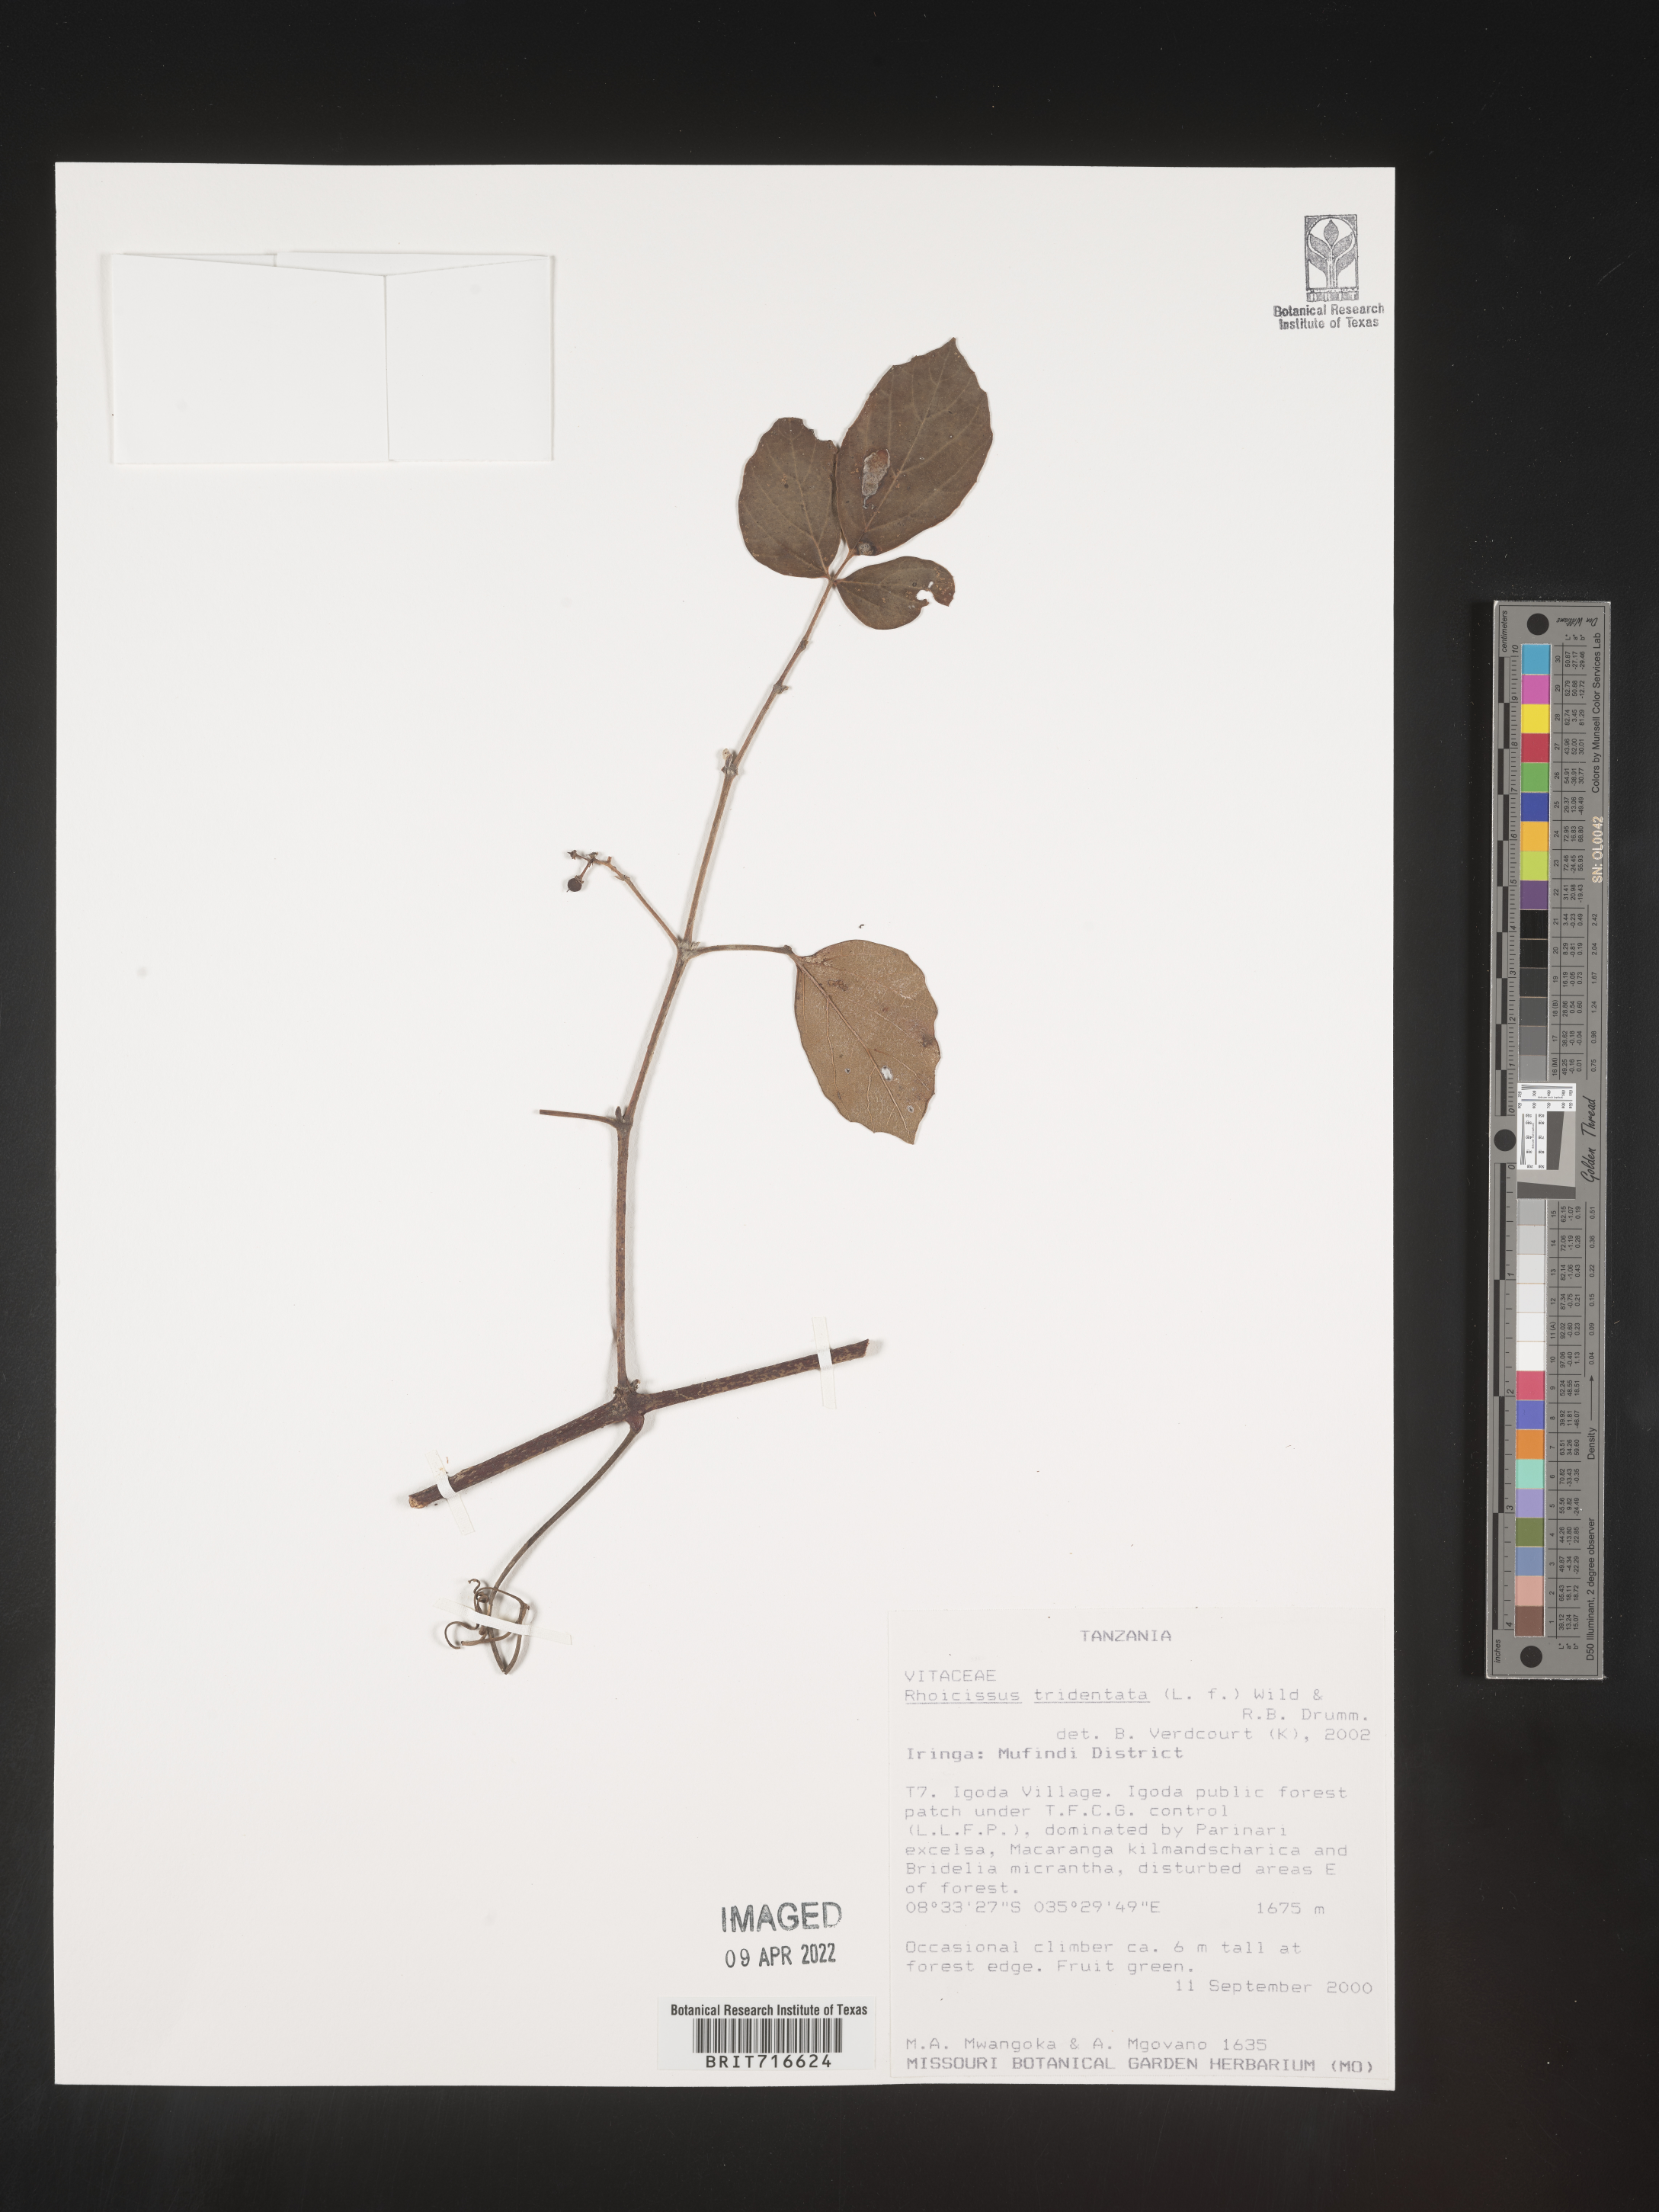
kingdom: Plantae
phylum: Tracheophyta
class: Magnoliopsida
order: Vitales
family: Vitaceae
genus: Rhoicissus
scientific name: Rhoicissus tridentata
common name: Common forest grape
